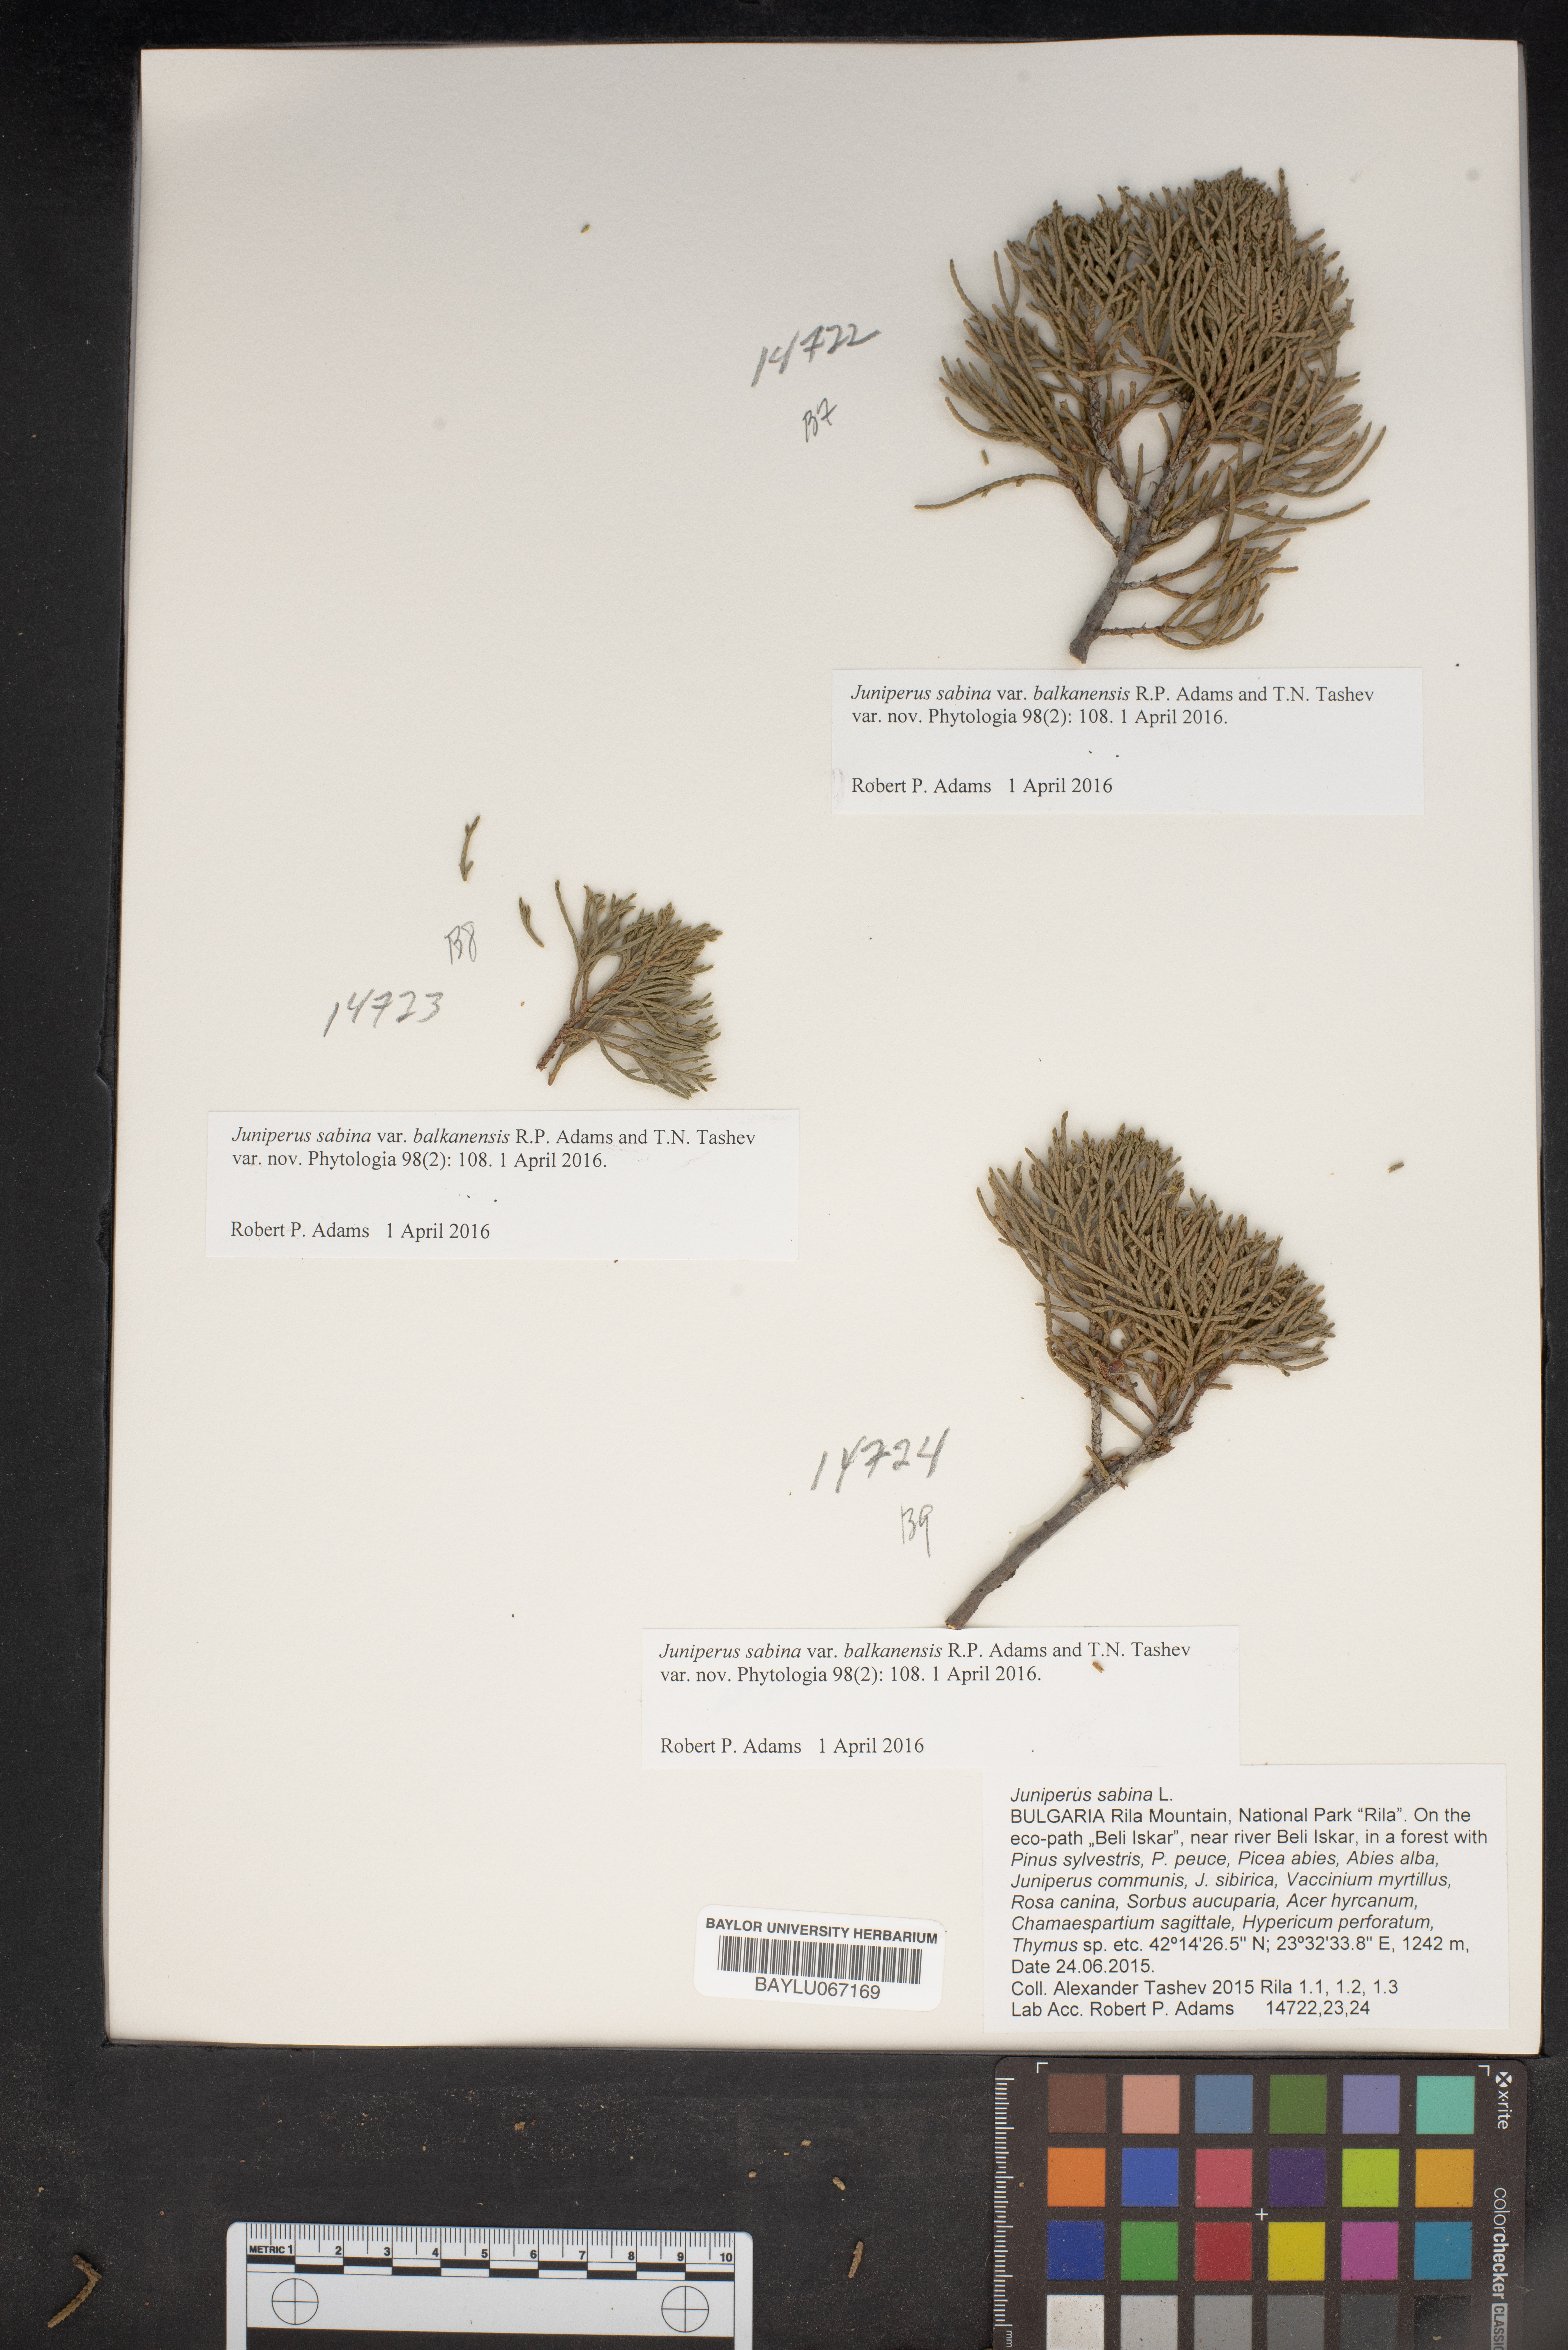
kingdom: Plantae
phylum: Tracheophyta
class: Pinopsida
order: Pinales
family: Cupressaceae
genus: Juniperus
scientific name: Juniperus sabina
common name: Savin
